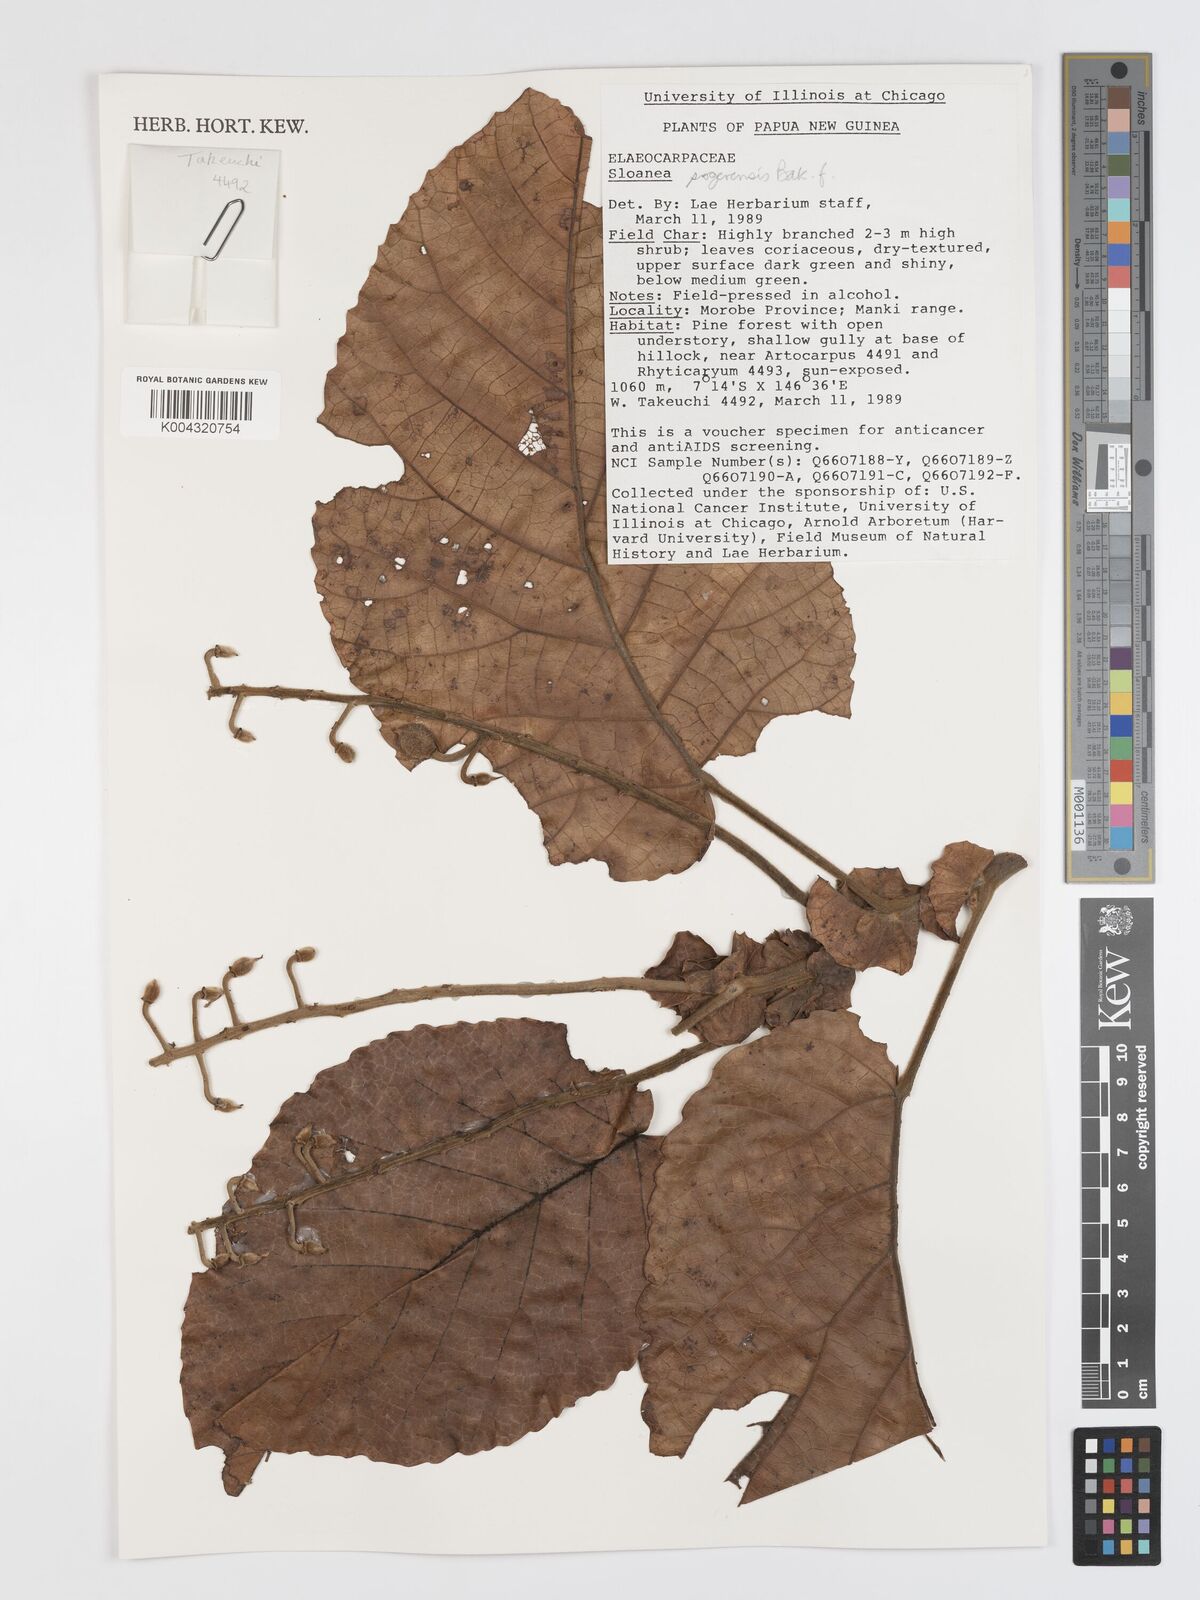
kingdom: Plantae
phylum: Tracheophyta
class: Magnoliopsida
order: Oxalidales
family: Elaeocarpaceae
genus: Sloanea
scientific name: Sloanea sogerensis
